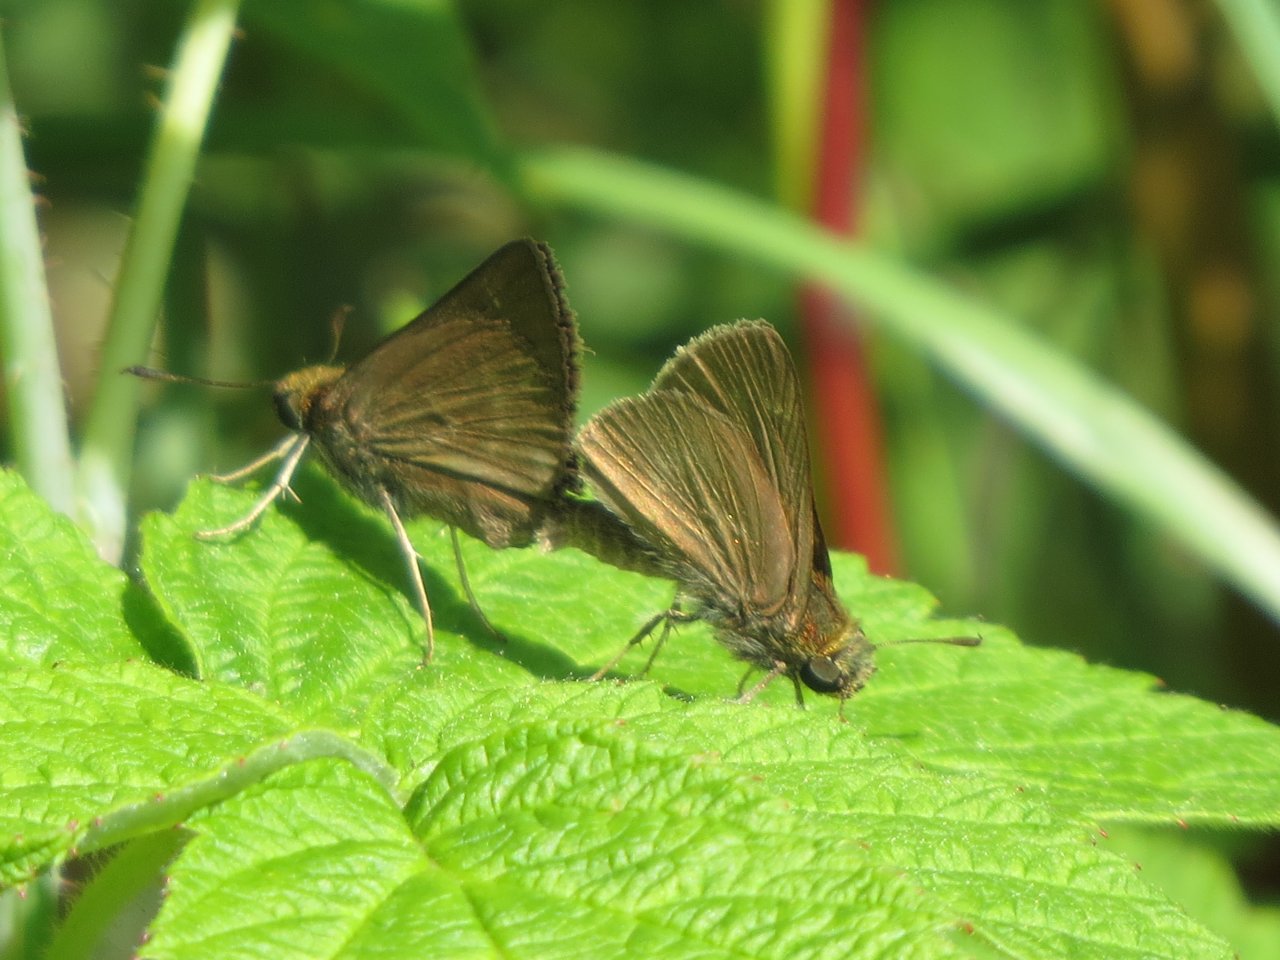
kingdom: Animalia
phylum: Arthropoda
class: Insecta
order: Lepidoptera
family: Hesperiidae
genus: Euphyes
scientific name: Euphyes vestris
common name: Dun Skipper
